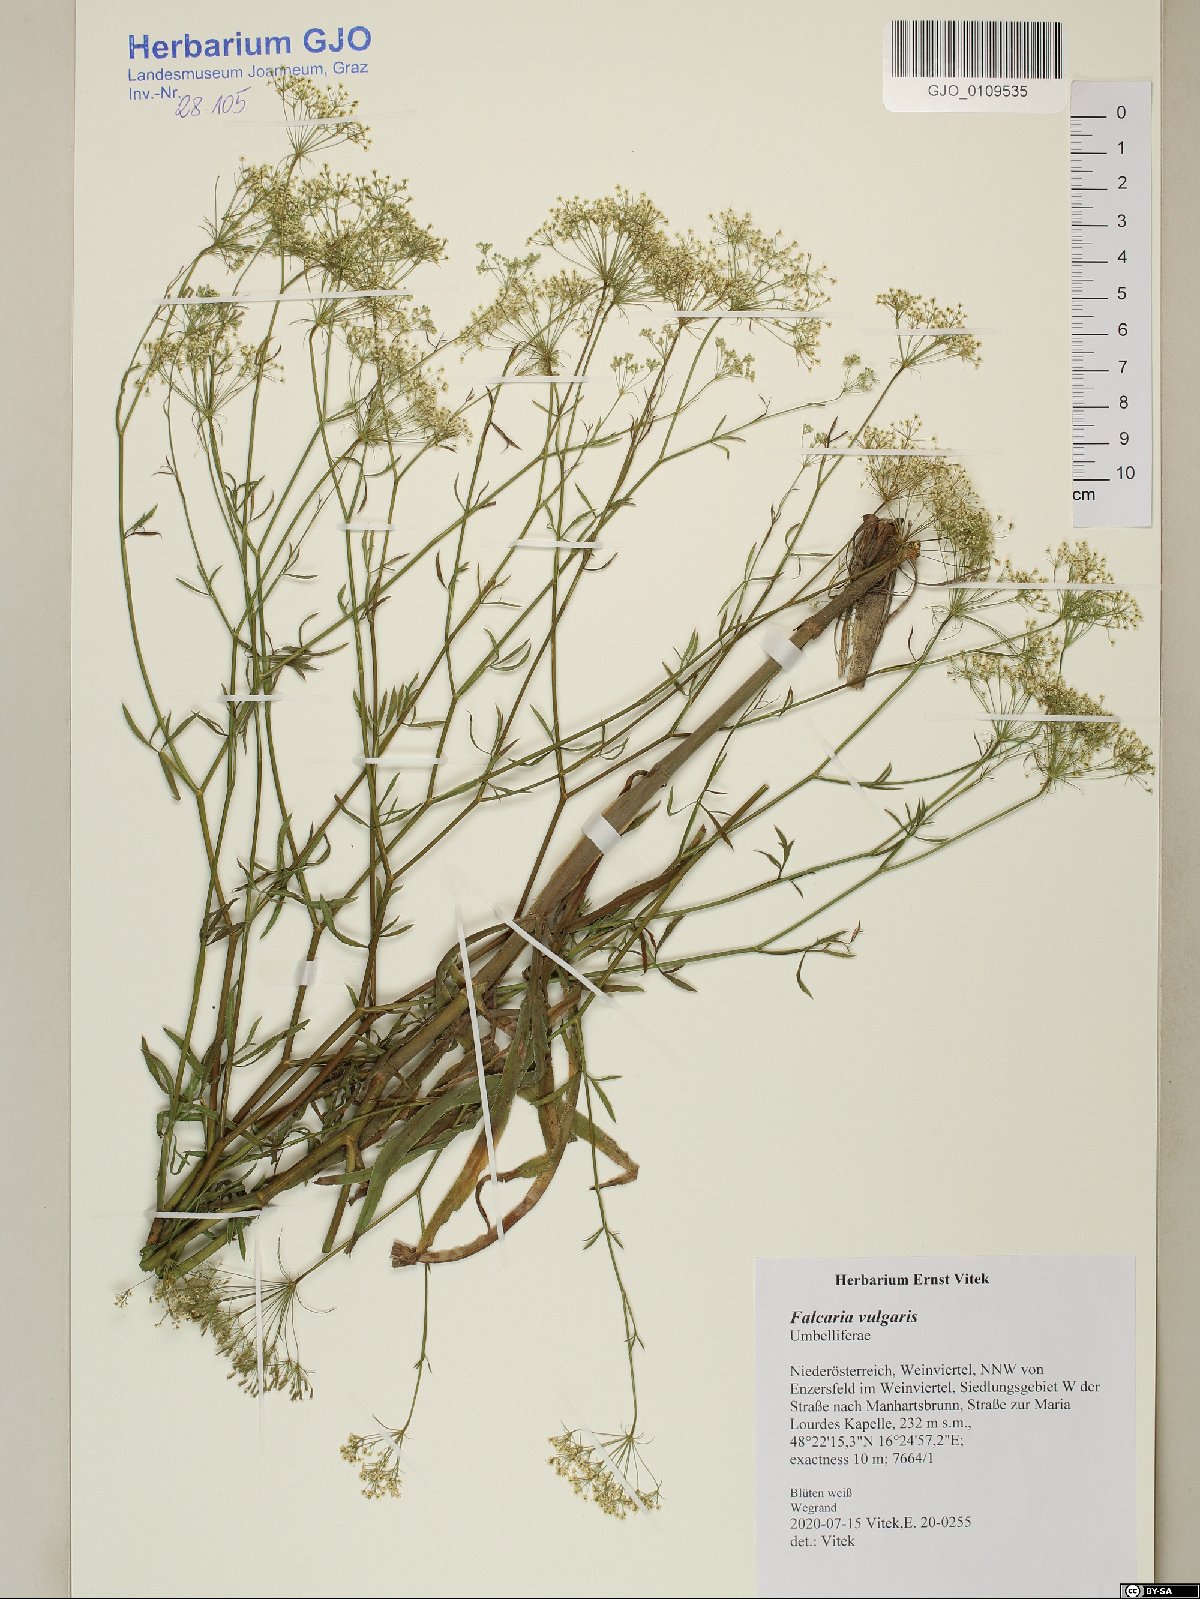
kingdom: Plantae
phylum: Tracheophyta
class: Magnoliopsida
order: Apiales
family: Apiaceae
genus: Falcaria
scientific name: Falcaria vulgaris
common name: Longleaf
